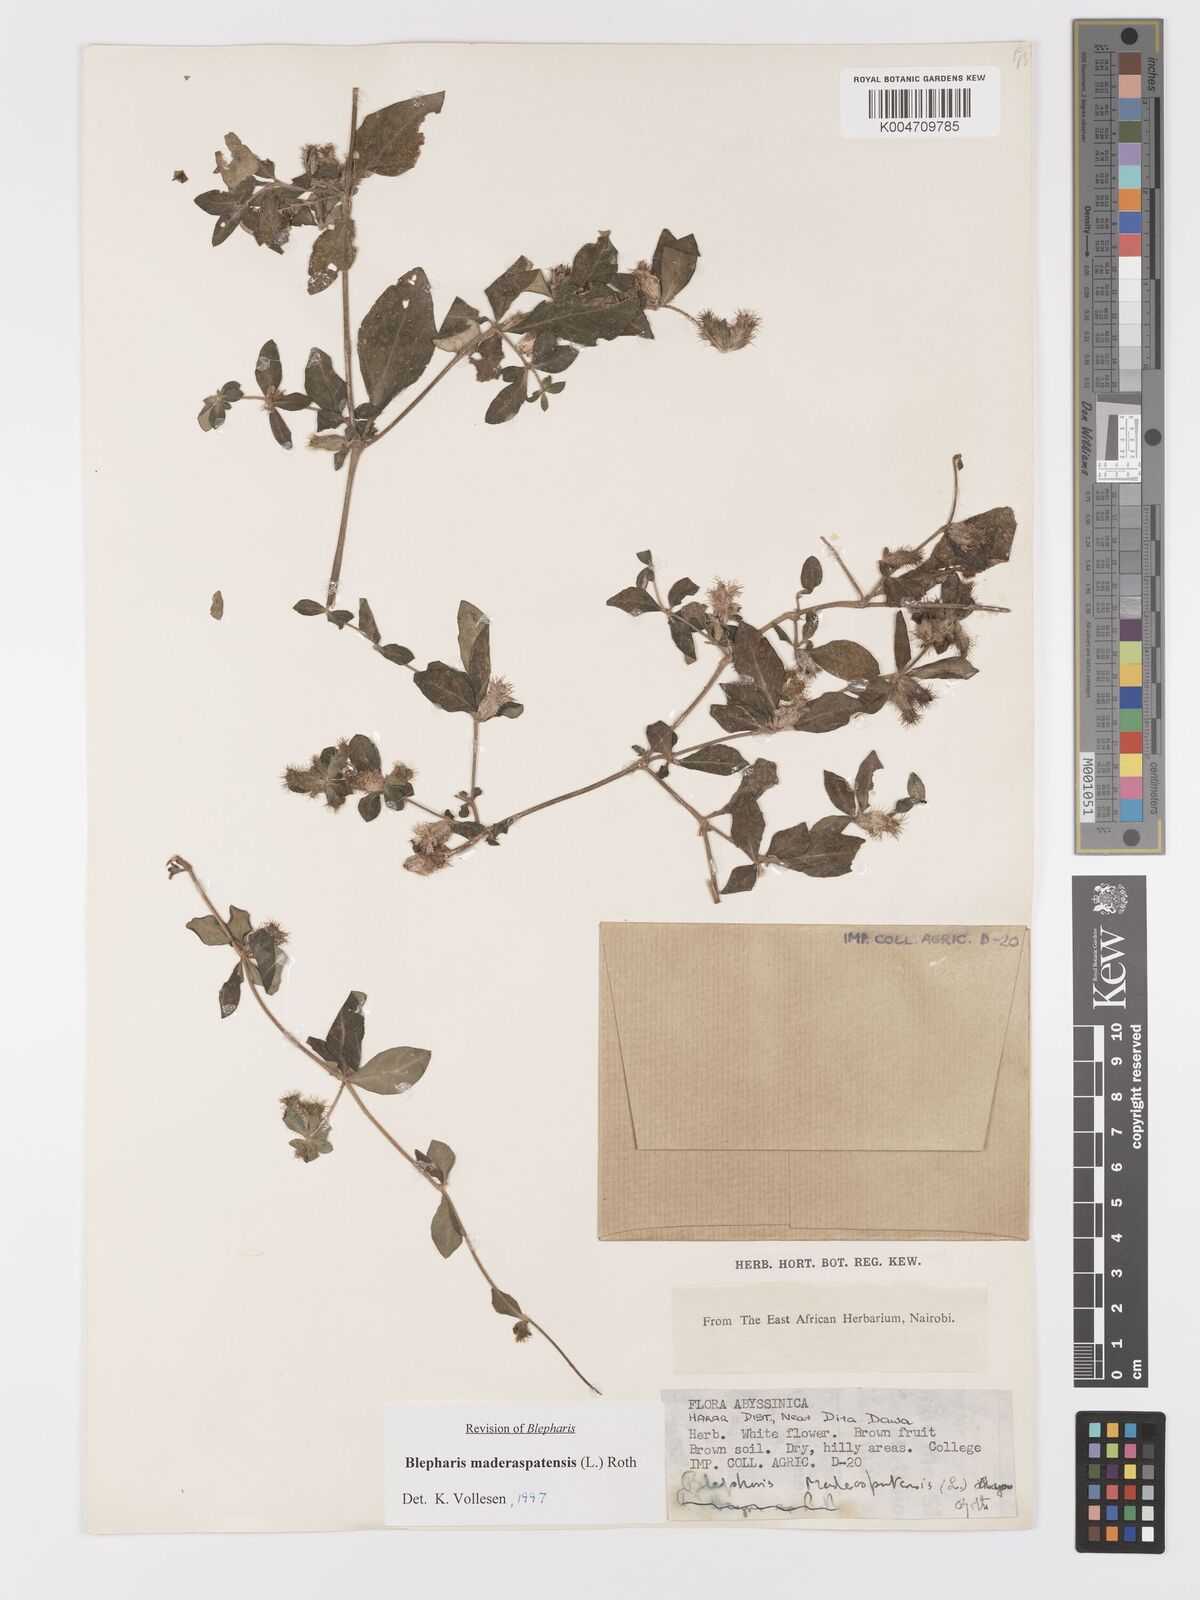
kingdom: Plantae
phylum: Tracheophyta
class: Magnoliopsida
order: Lamiales
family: Acanthaceae
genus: Blepharis
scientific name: Blepharis maderaspatensis
